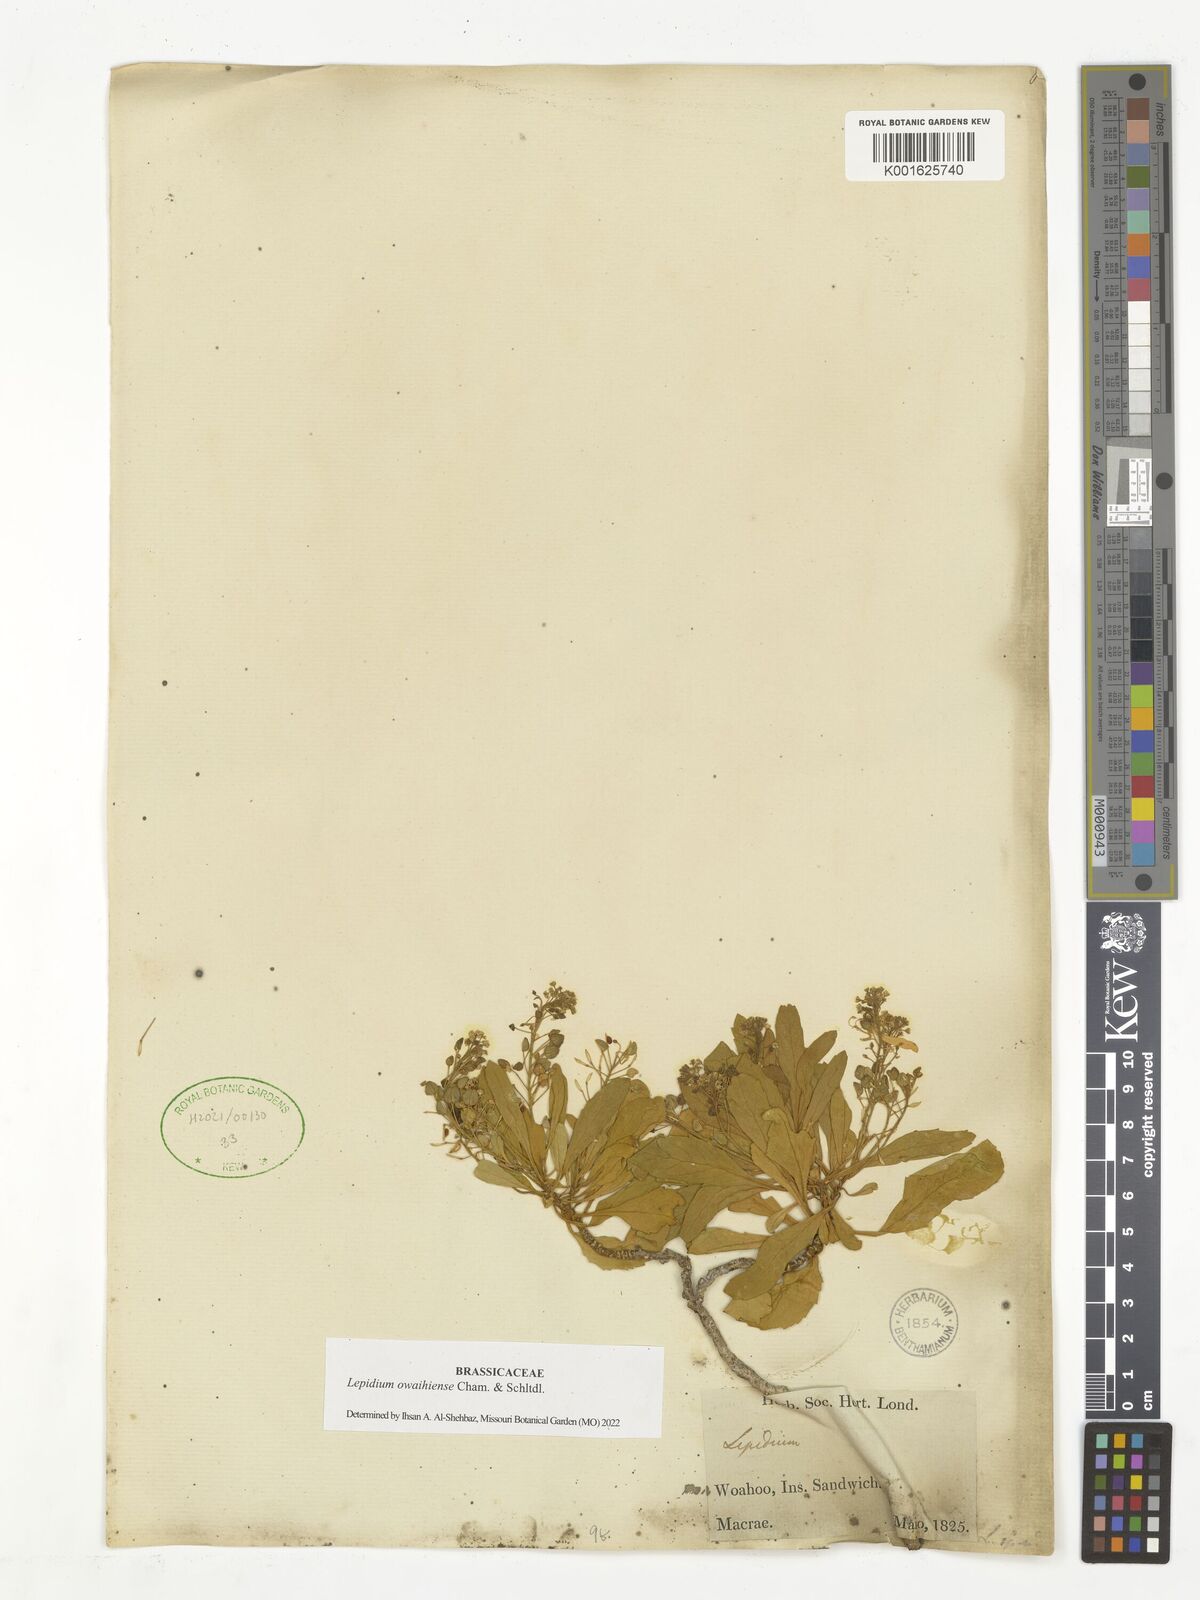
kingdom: Plantae
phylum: Tracheophyta
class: Magnoliopsida
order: Brassicales
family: Brassicaceae
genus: Lepidium
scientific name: Lepidium owaihiense
